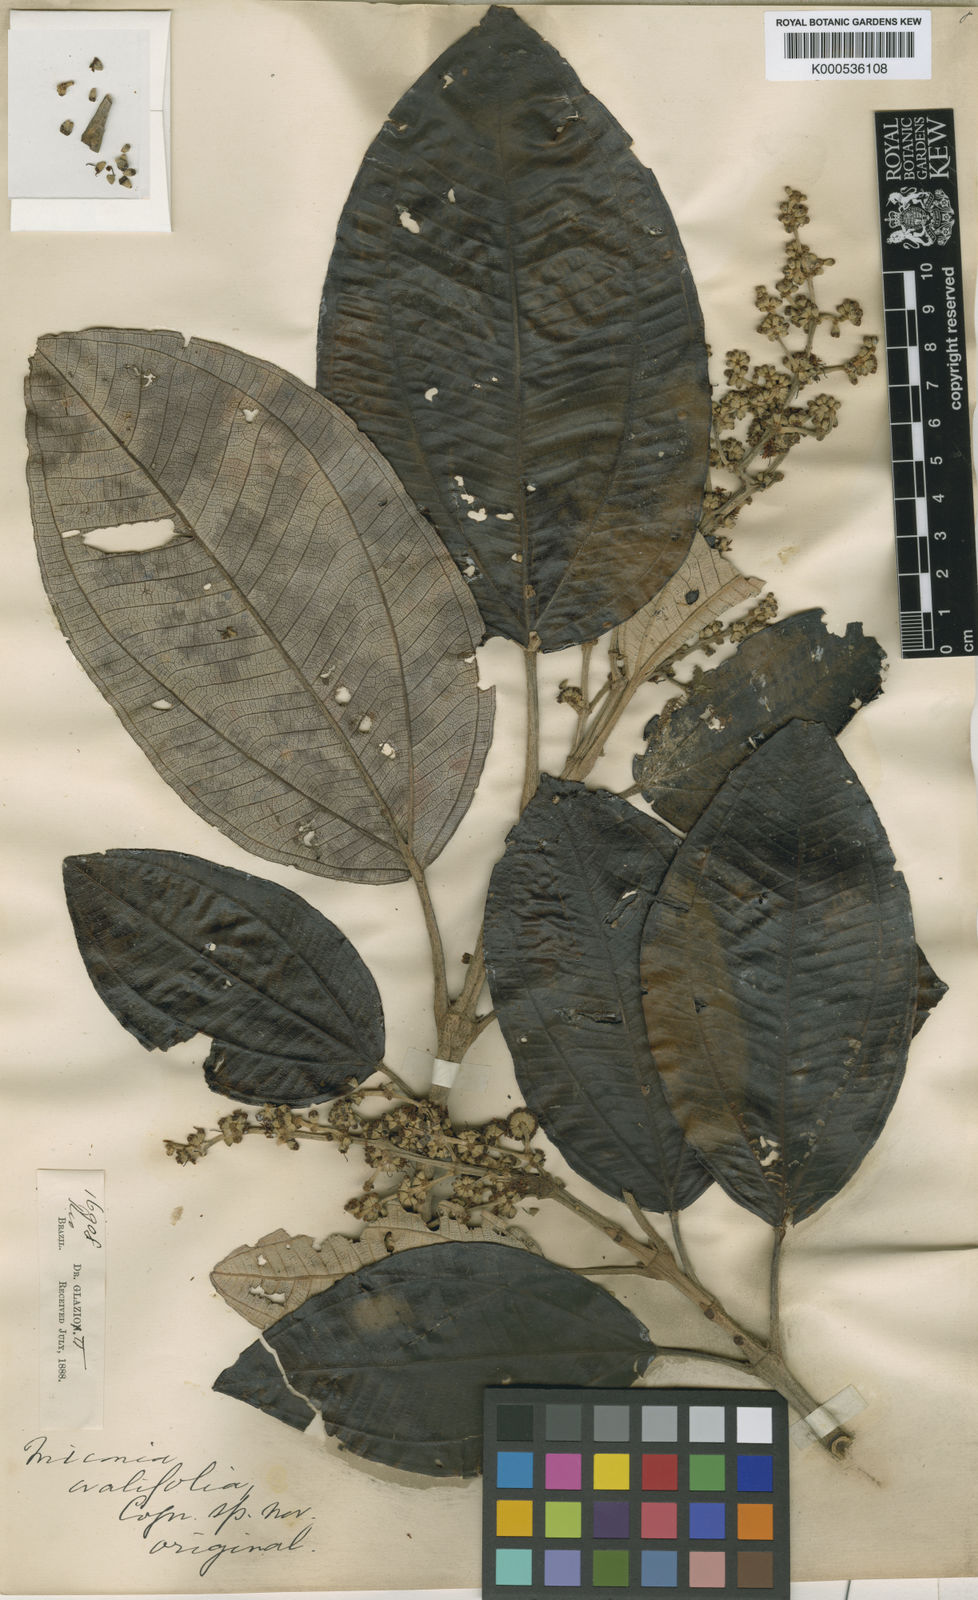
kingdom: Plantae
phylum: Tracheophyta
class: Magnoliopsida
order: Myrtales
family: Melastomataceae
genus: Miconia
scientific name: Miconia formosa
